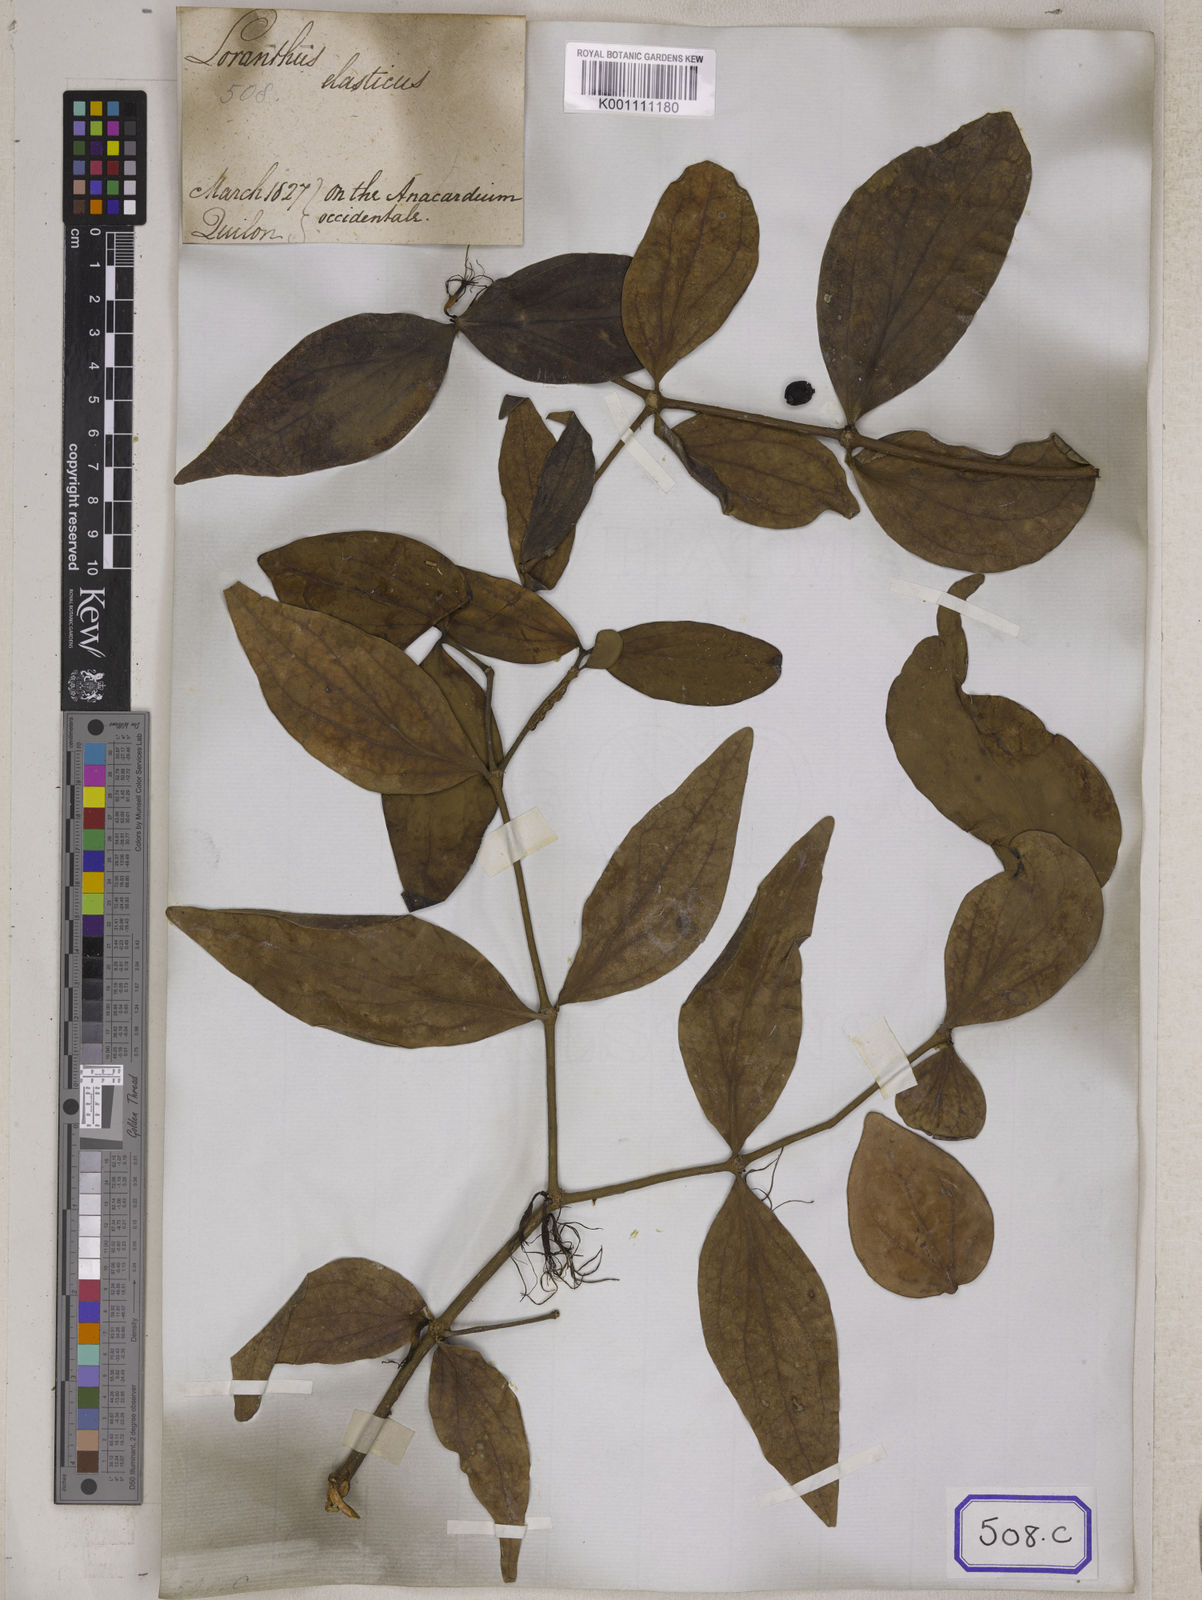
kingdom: Plantae
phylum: Tracheophyta
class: Magnoliopsida
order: Santalales
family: Loranthaceae
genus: Loranthus
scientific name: Loranthus
